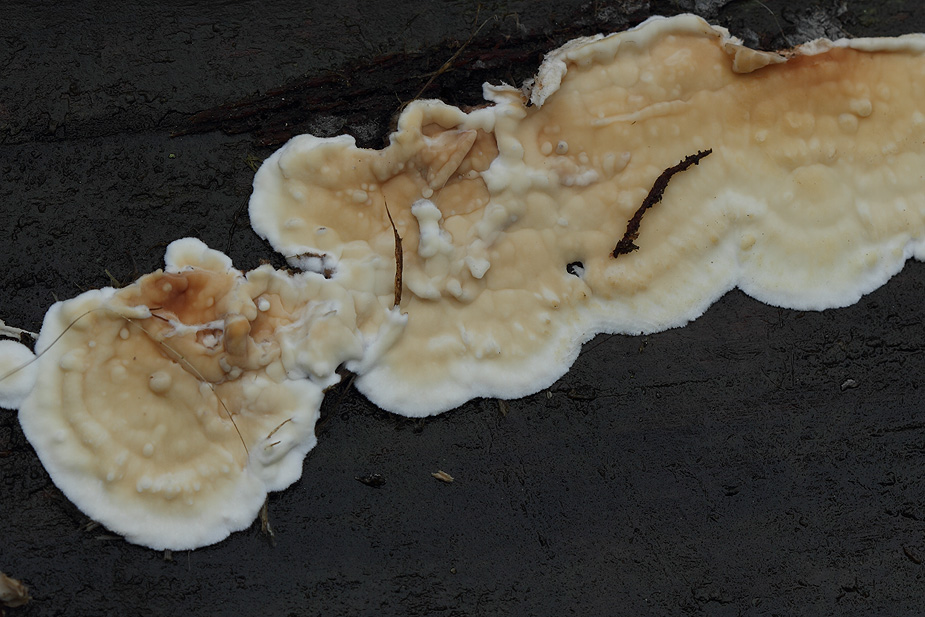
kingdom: Fungi
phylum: Basidiomycota
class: Agaricomycetes
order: Polyporales
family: Dacryobolaceae
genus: Dacryobolus
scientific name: Dacryobolus karstenii
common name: glat vulkanskorpe
